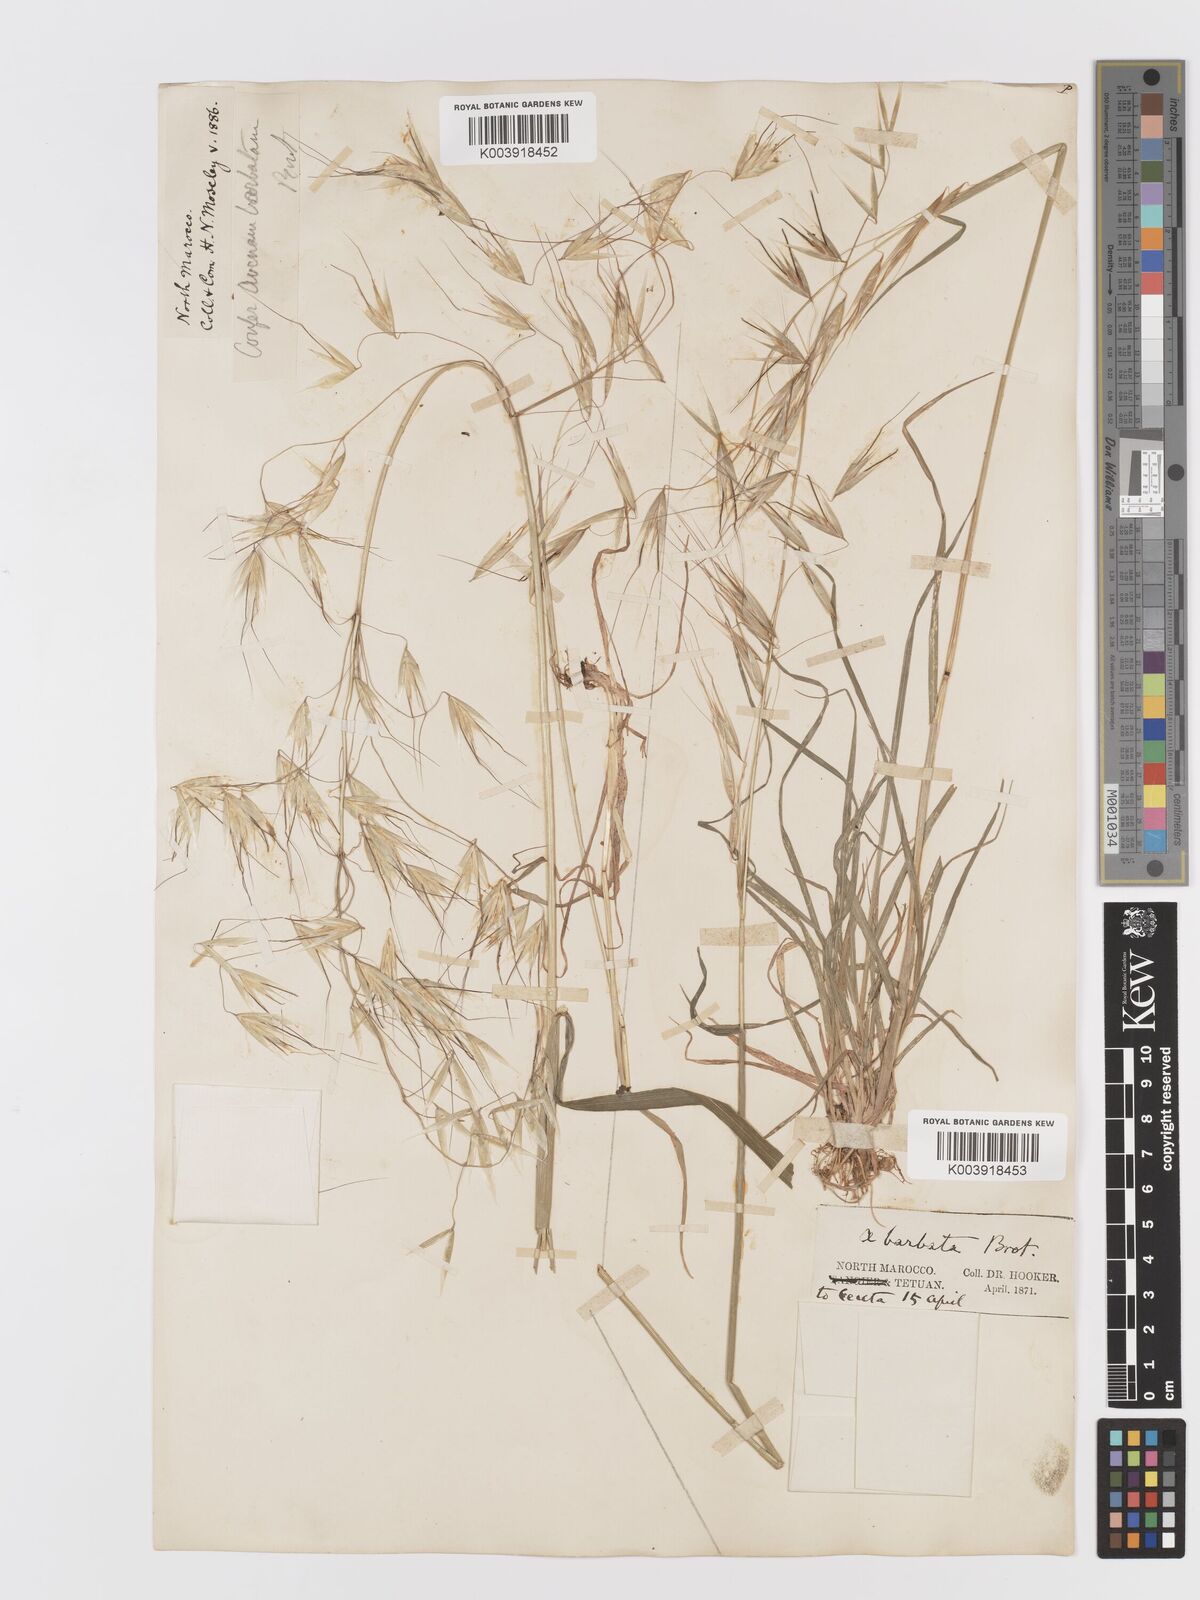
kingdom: Plantae
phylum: Tracheophyta
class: Liliopsida
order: Poales
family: Poaceae
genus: Avena
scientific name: Avena
